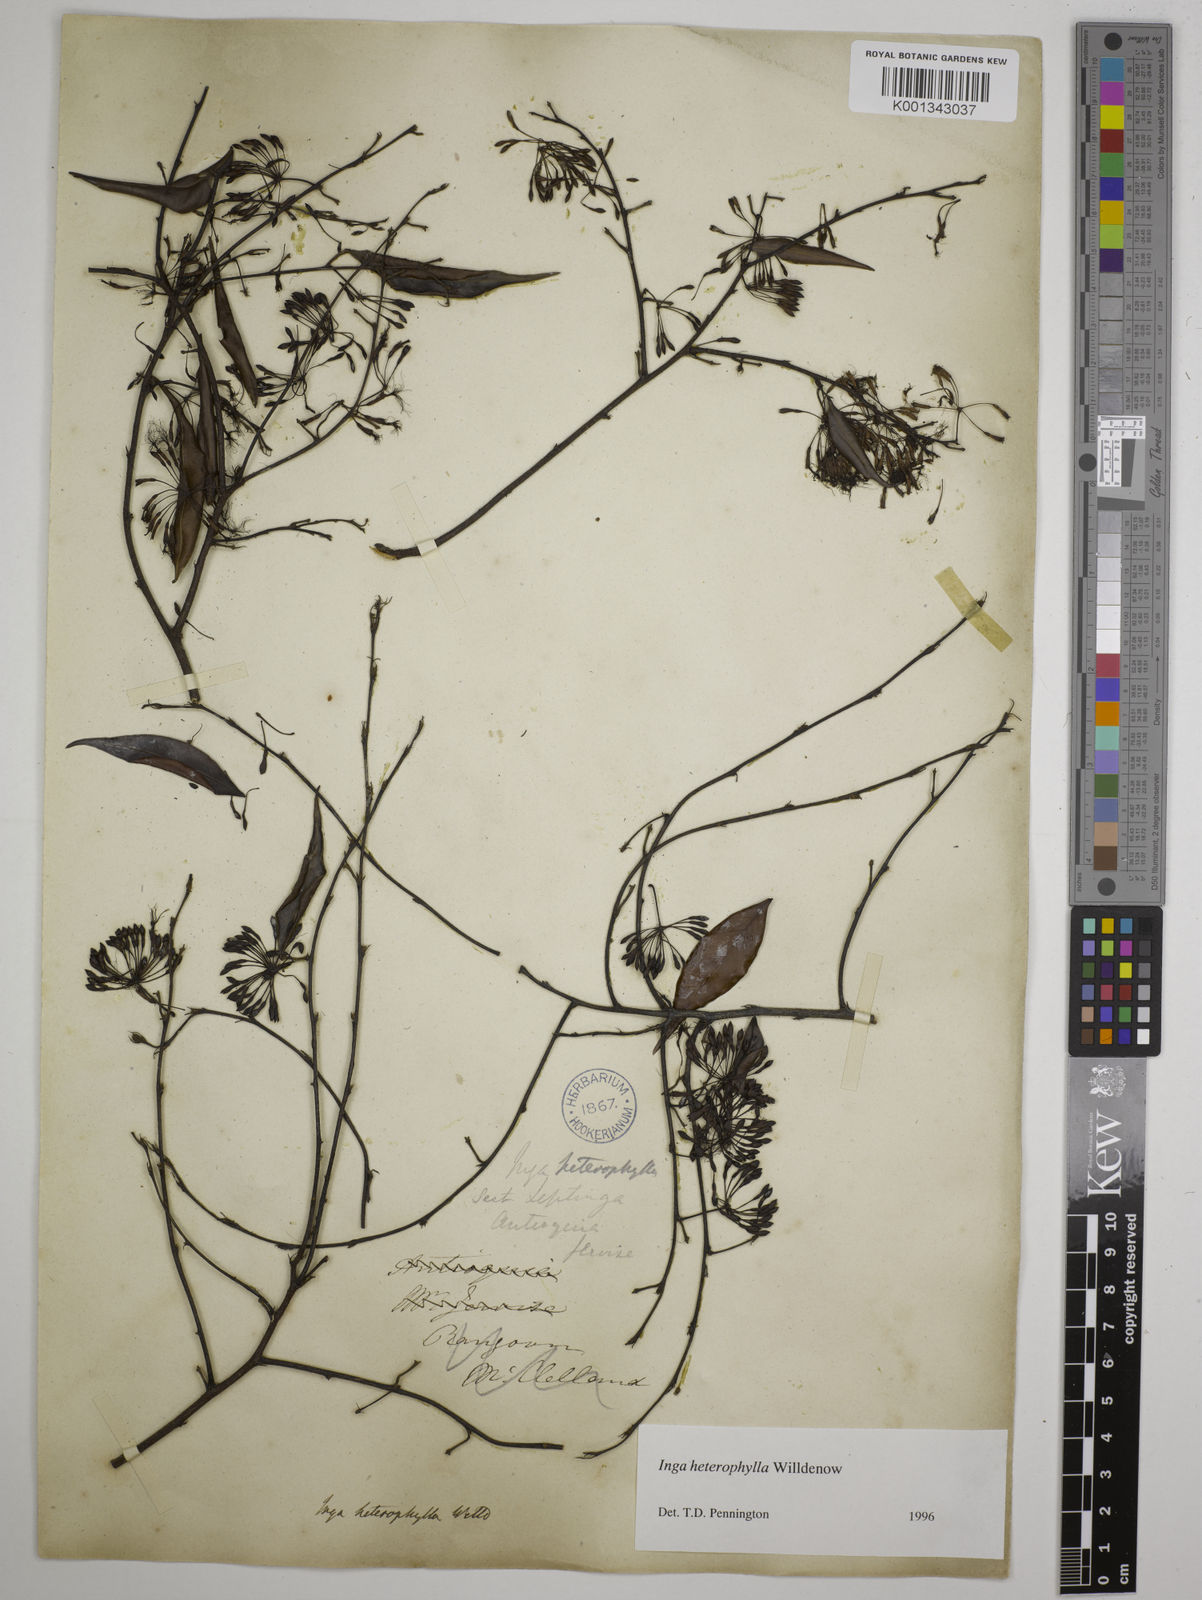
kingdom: Plantae
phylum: Tracheophyta
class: Magnoliopsida
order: Fabales
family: Fabaceae
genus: Inga
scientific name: Inga heterophylla
